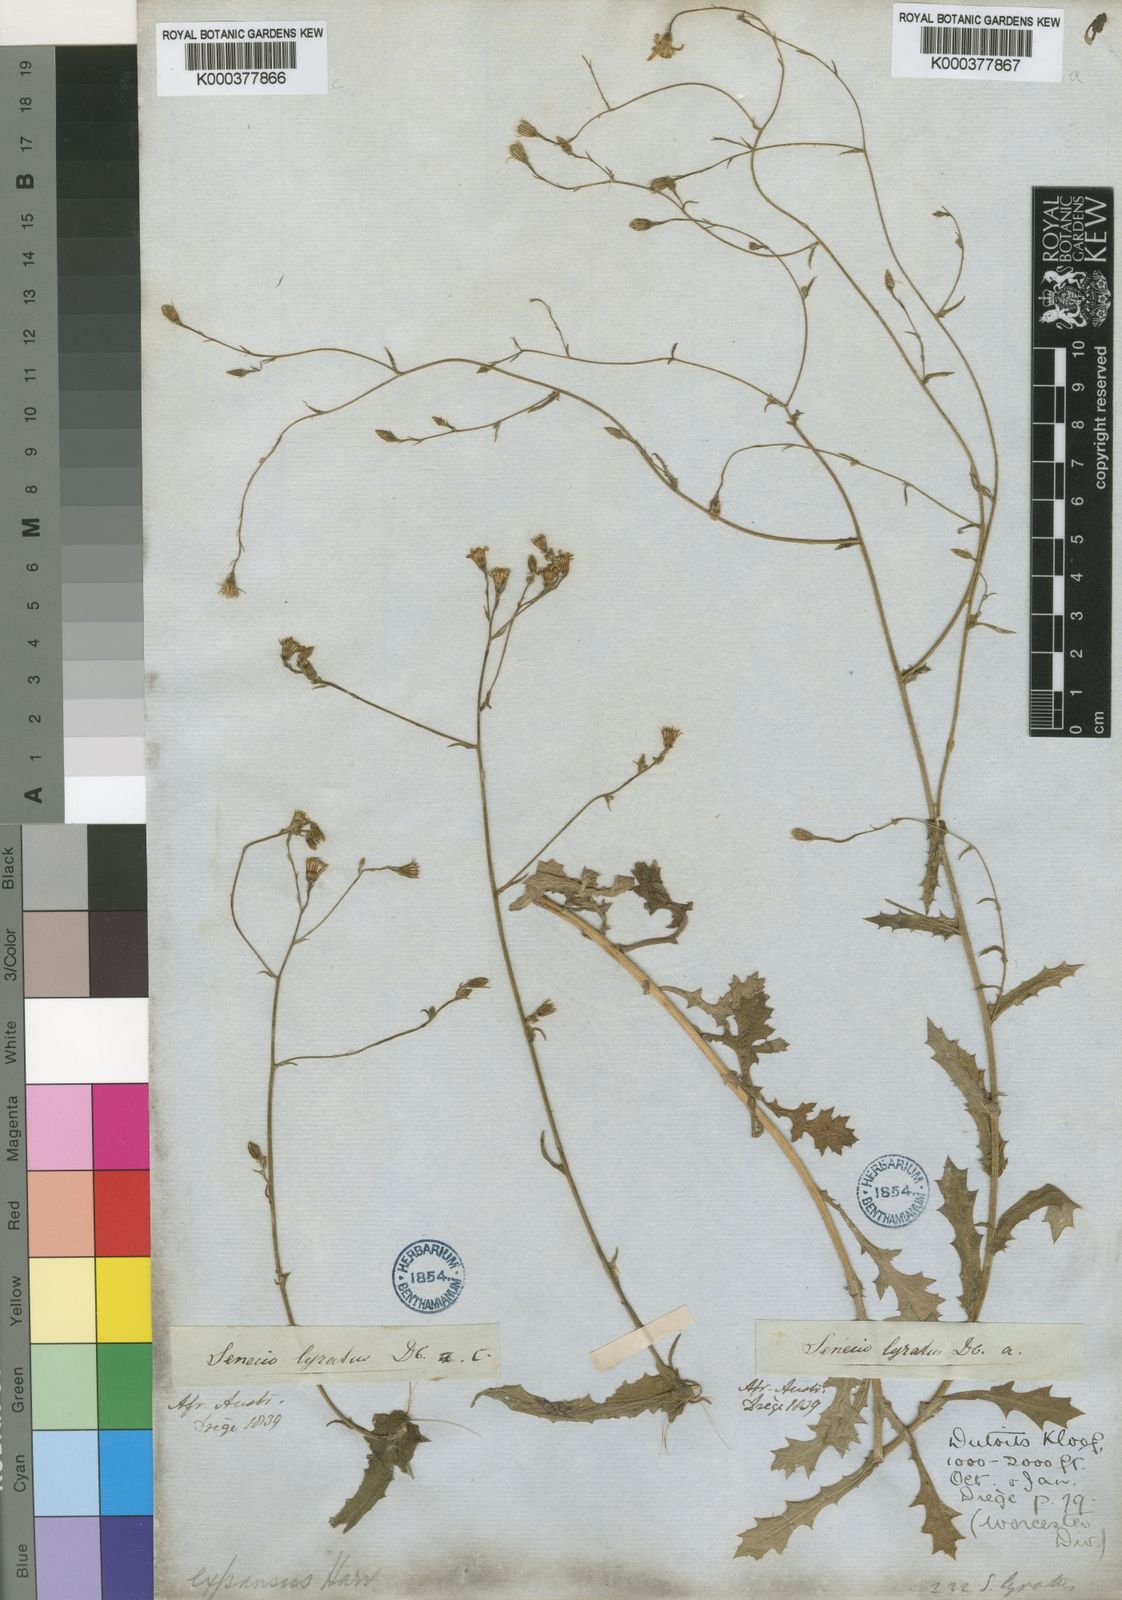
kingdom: Plantae
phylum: Tracheophyta
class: Magnoliopsida
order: Asterales
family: Asteraceae
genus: Senecio
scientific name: Senecio anapetes
